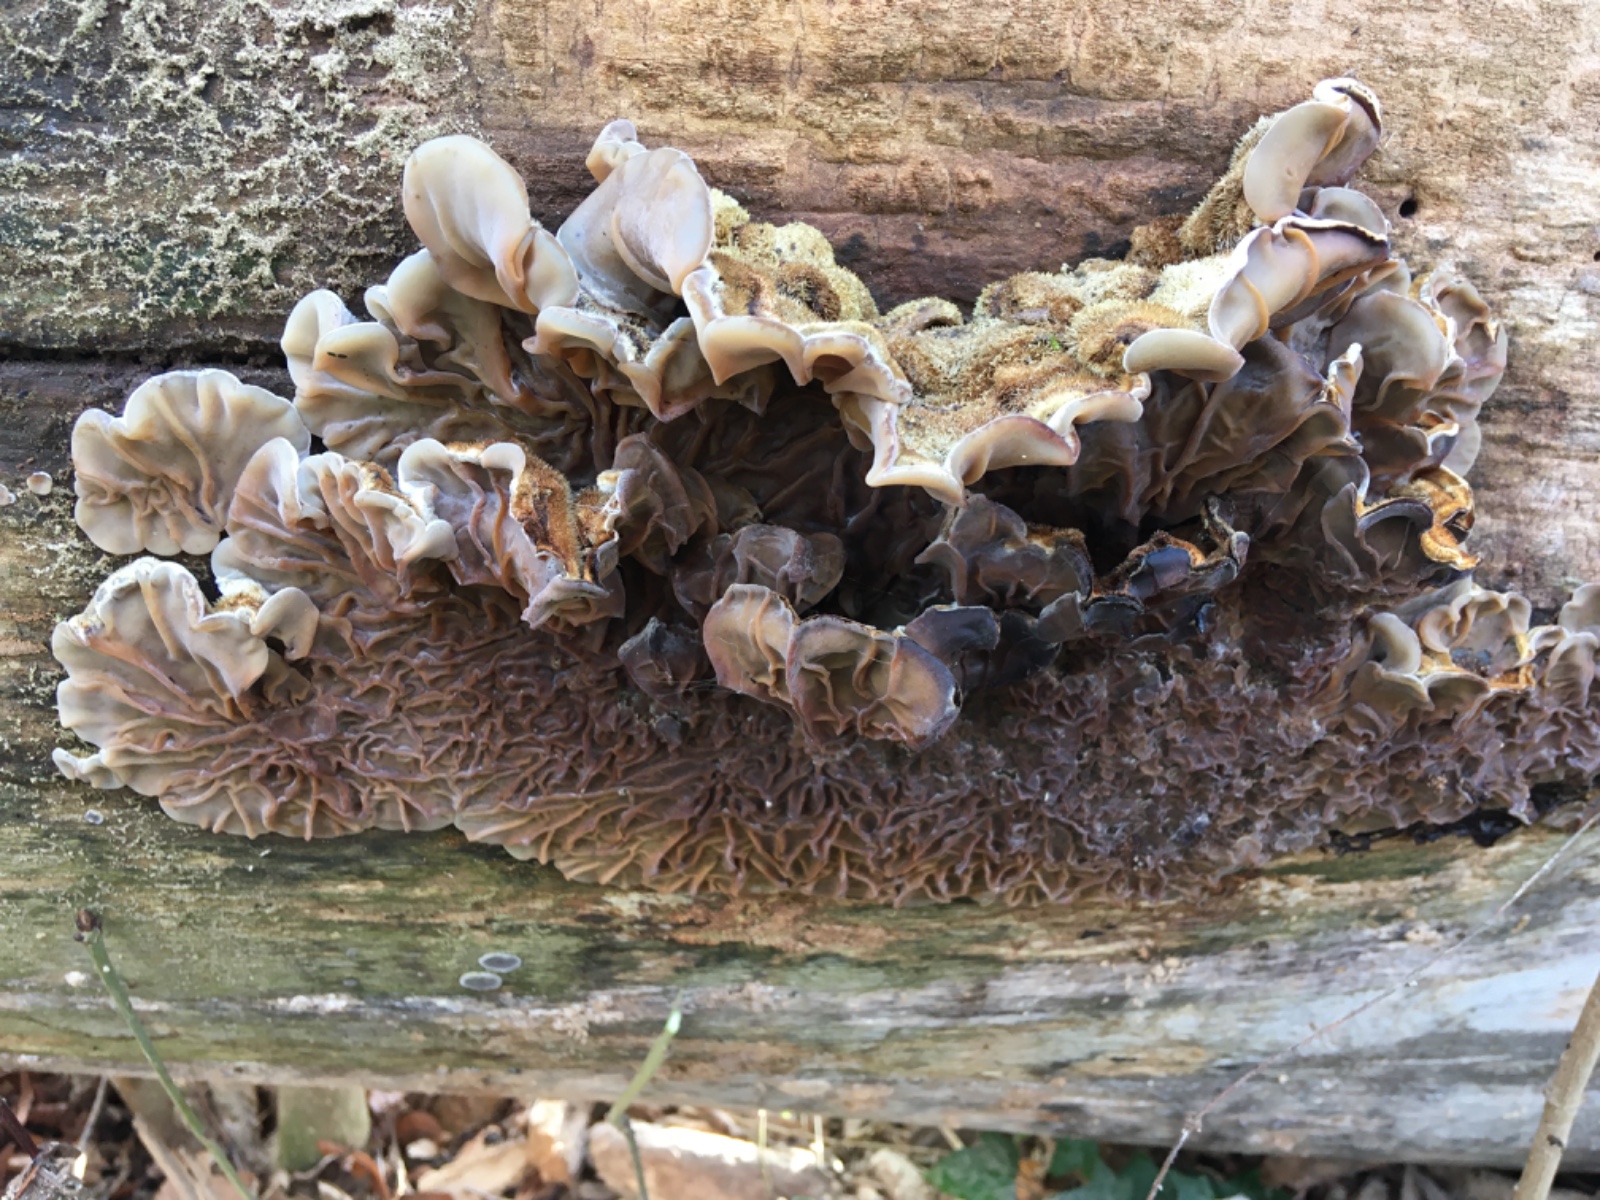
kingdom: Fungi
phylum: Basidiomycota
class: Agaricomycetes
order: Auriculariales
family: Auriculariaceae
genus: Auricularia
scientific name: Auricularia mesenterica
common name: håret judasøre
